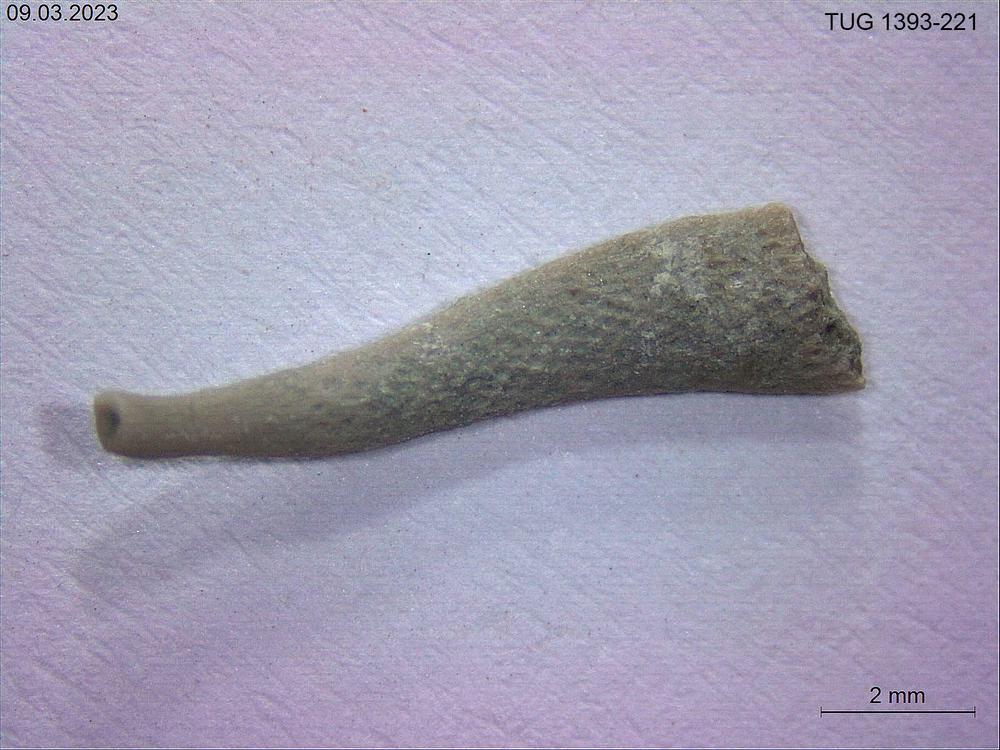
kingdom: Animalia
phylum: Bryozoa
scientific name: Bryozoa
